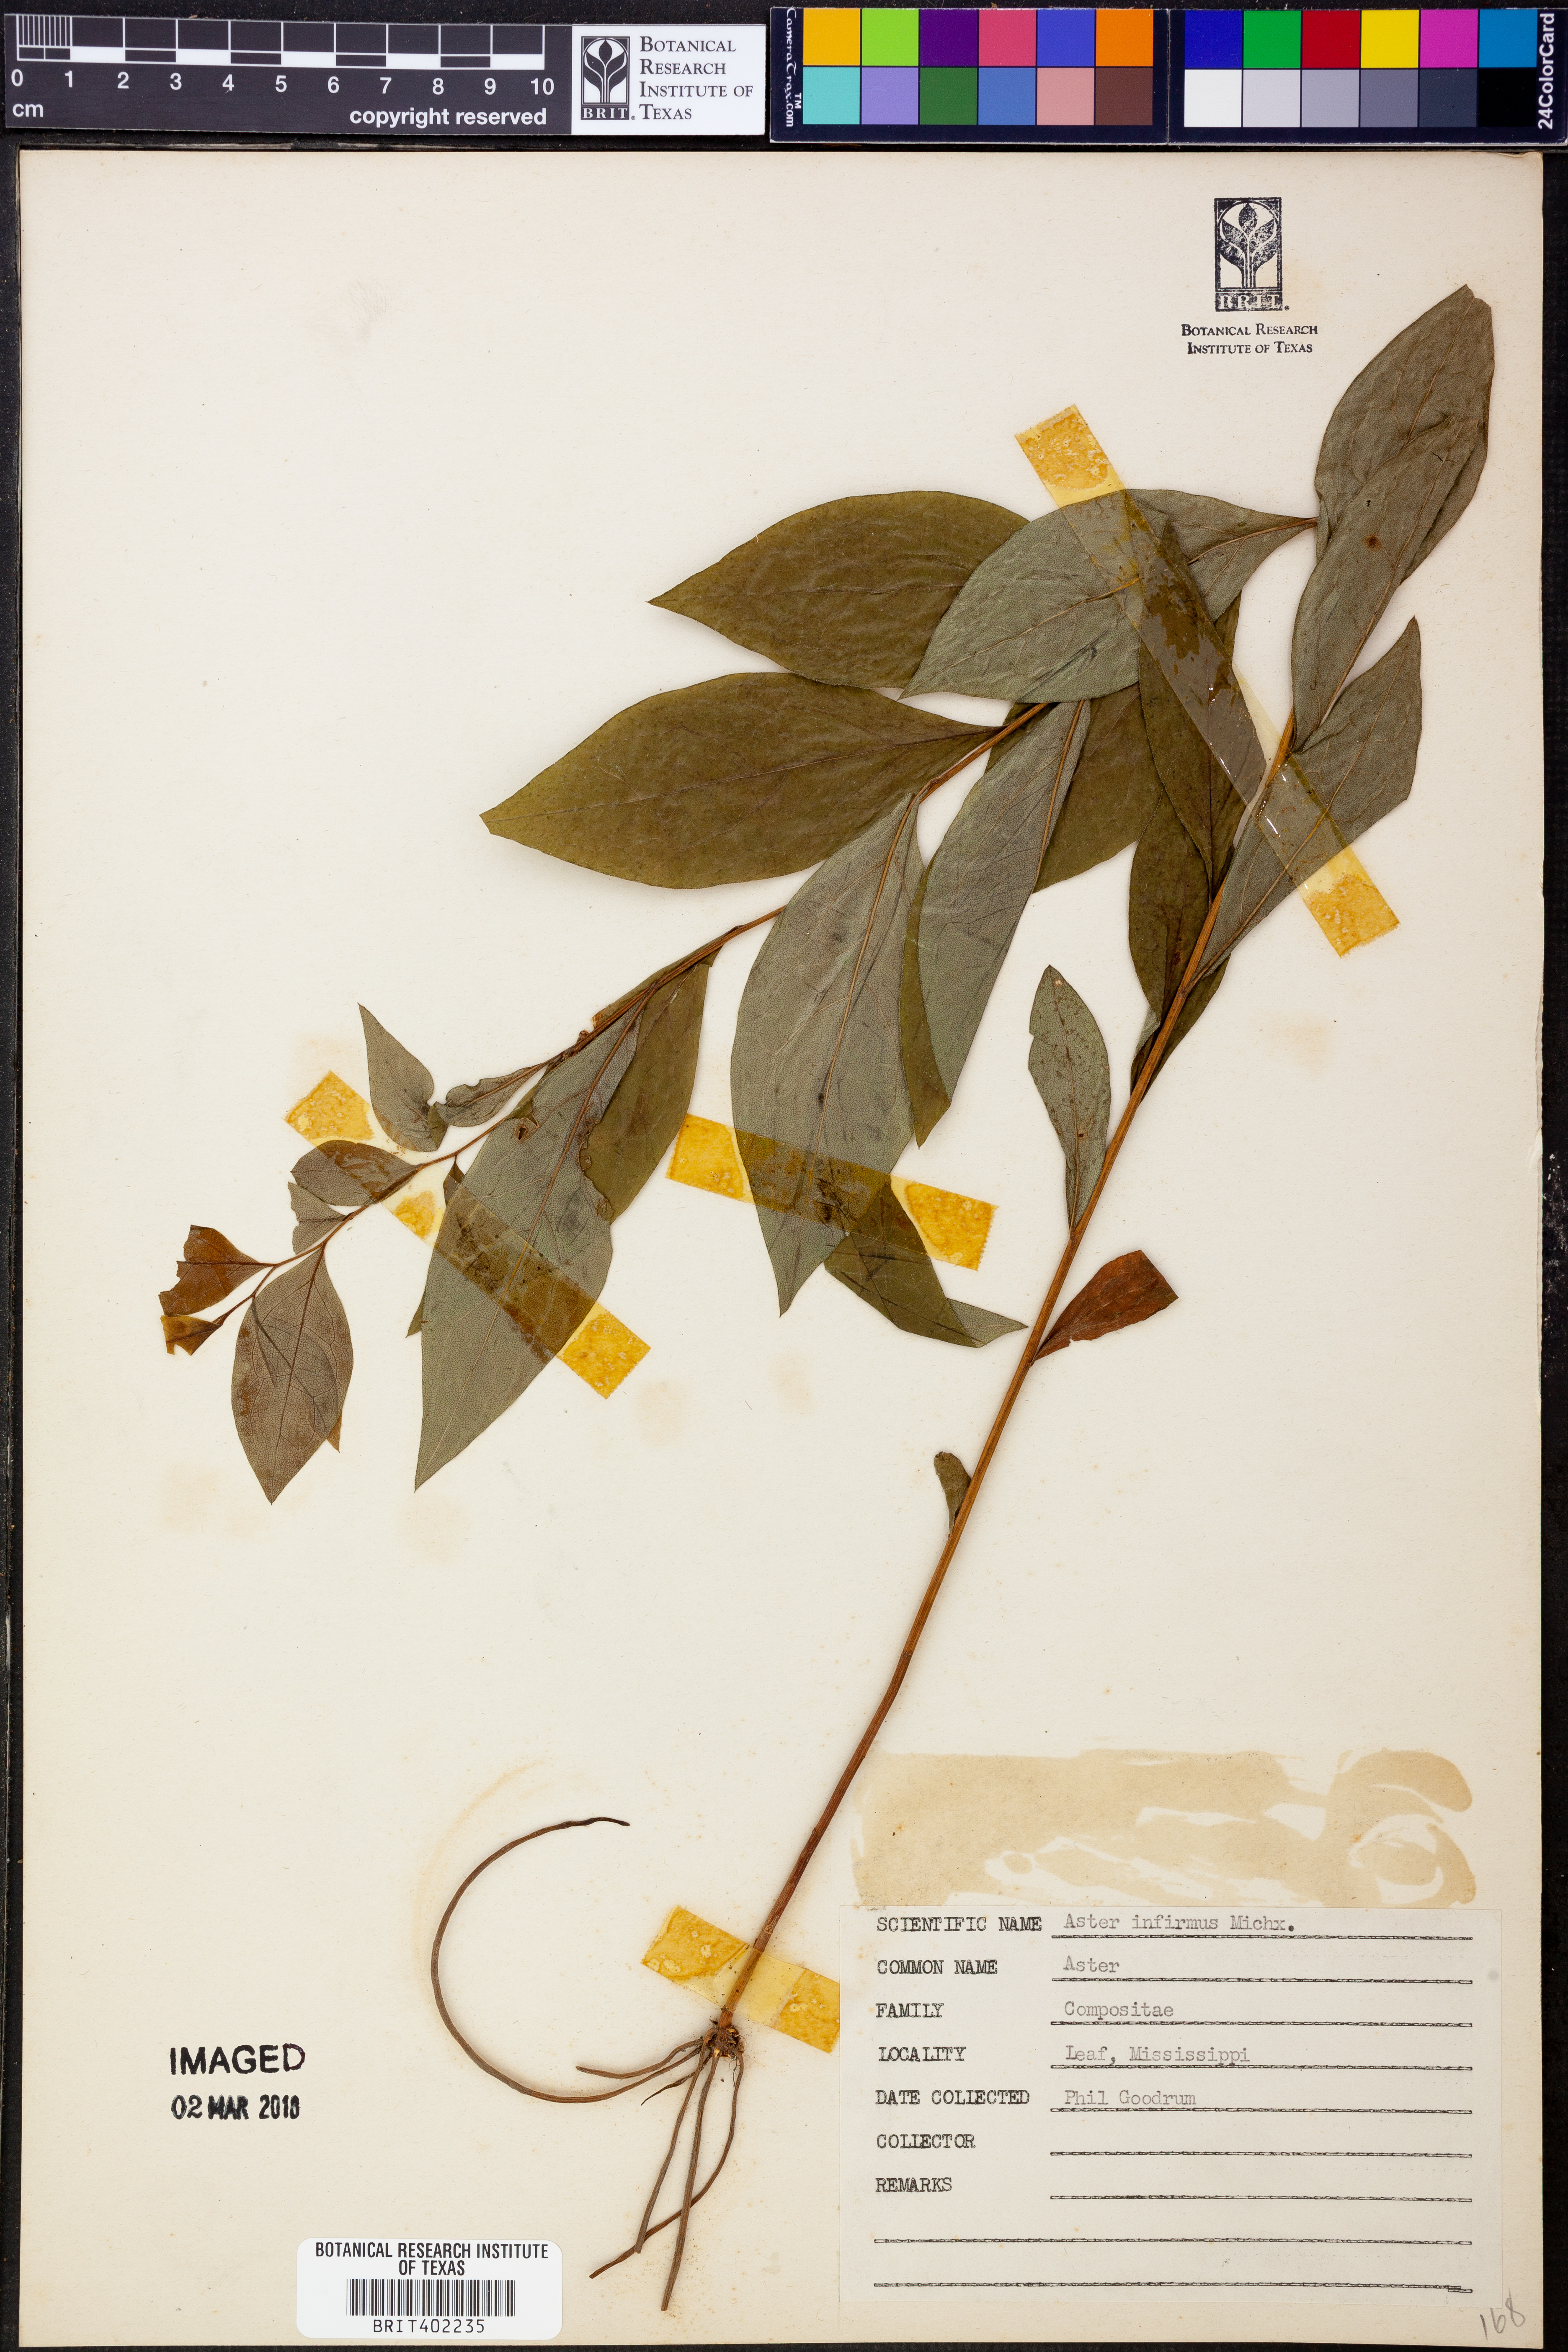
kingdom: Plantae
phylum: Tracheophyta
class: Magnoliopsida
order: Asterales
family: Asteraceae
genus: Doellingeria
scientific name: Doellingeria infirma
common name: Appalachian flat-top aster
